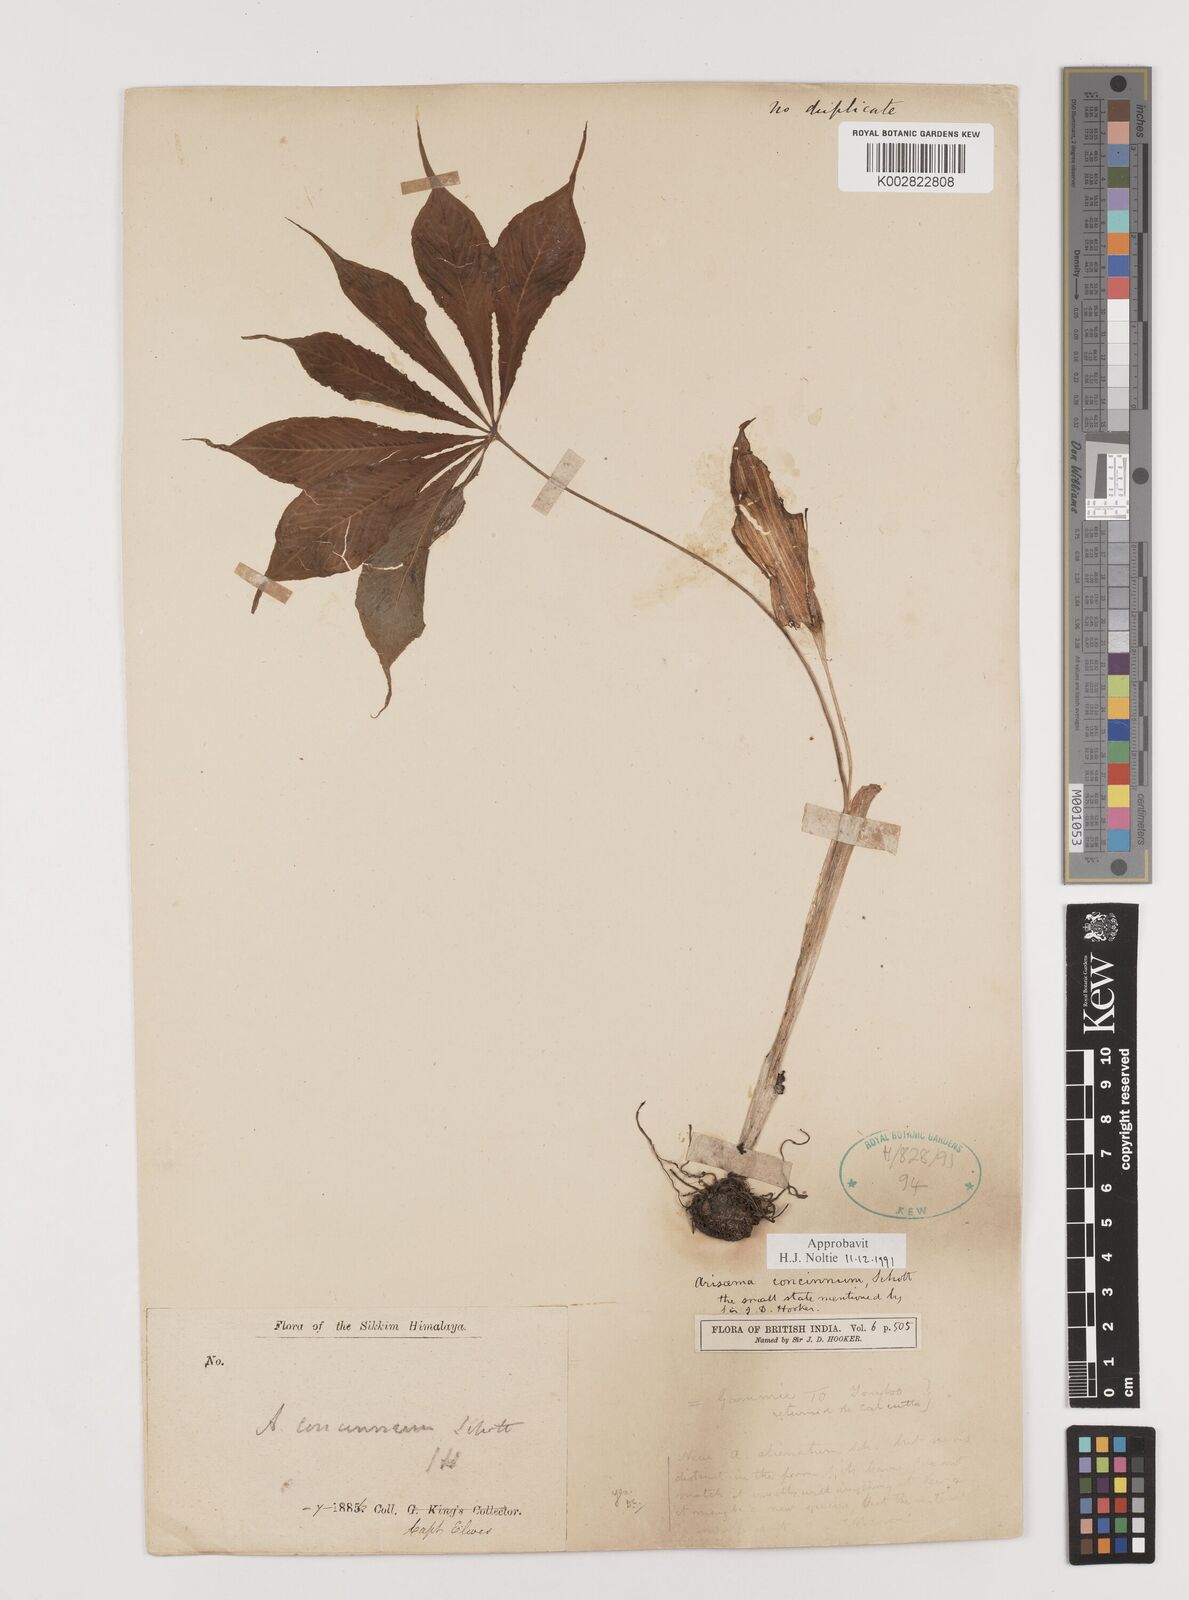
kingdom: Plantae
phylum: Tracheophyta
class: Liliopsida
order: Alismatales
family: Araceae
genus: Arisaema
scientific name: Arisaema concinnum
